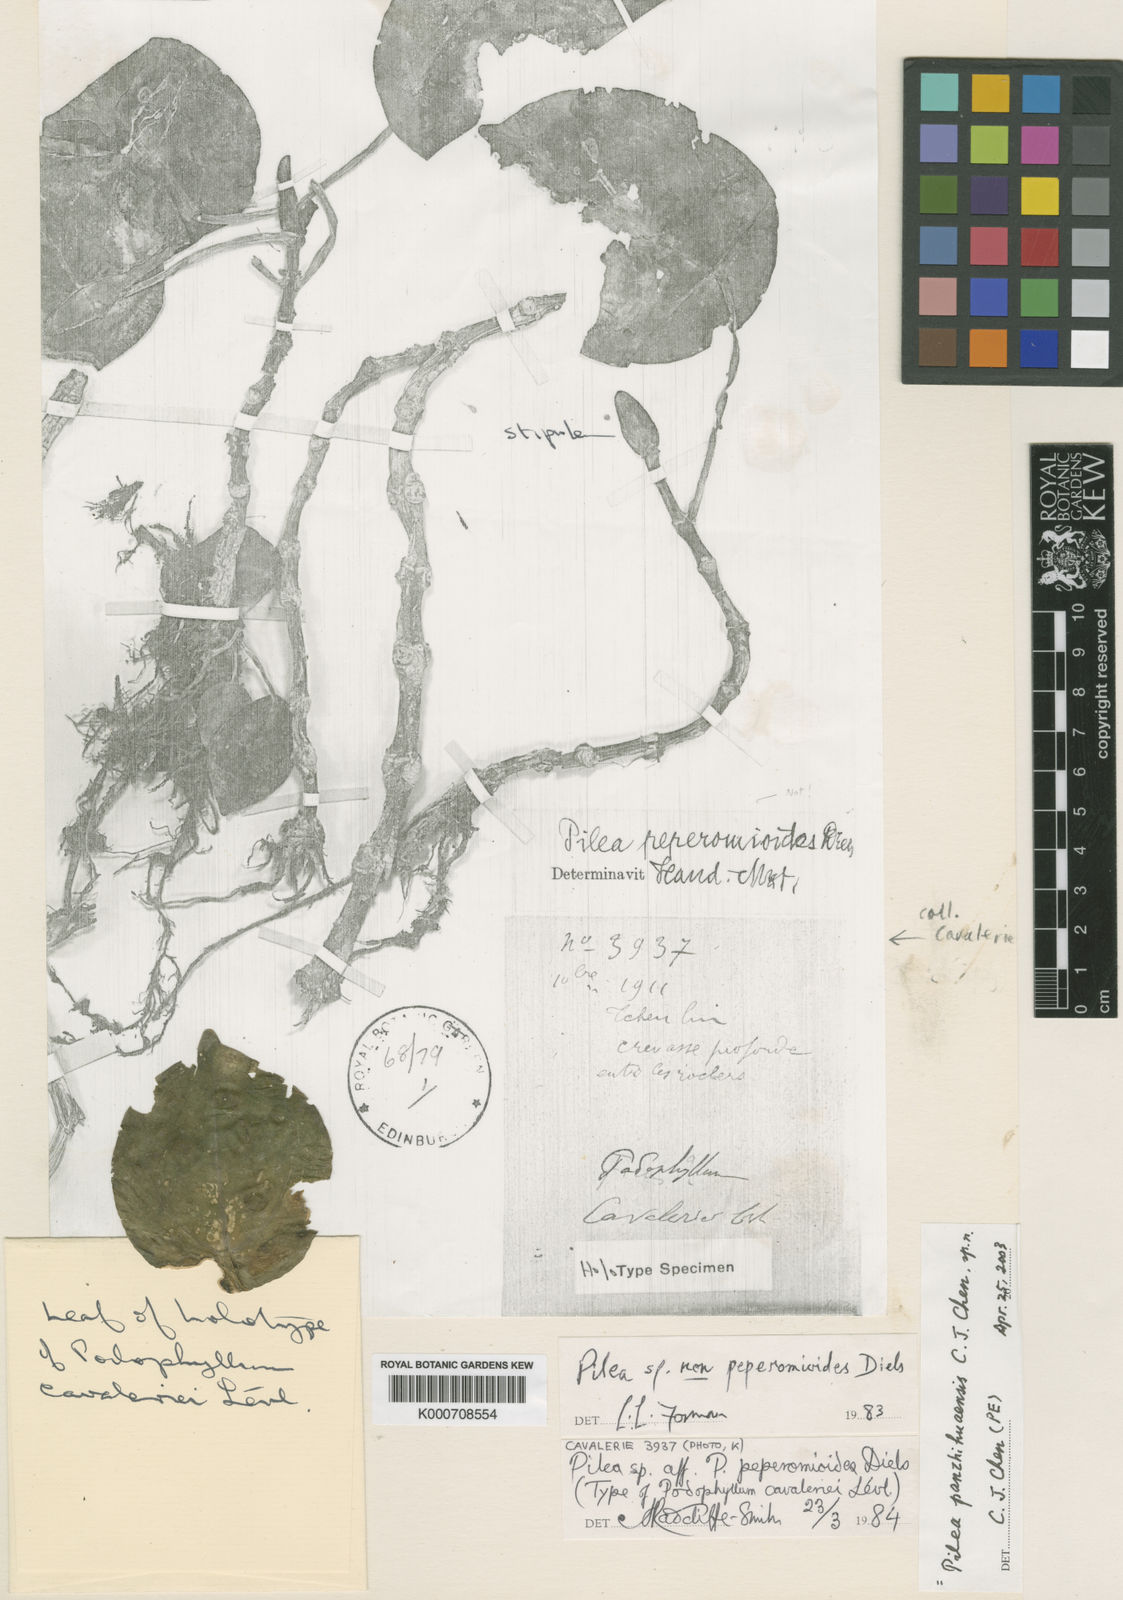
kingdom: Plantae
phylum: Tracheophyta
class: Magnoliopsida
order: Rosales
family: Urticaceae
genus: Pilea
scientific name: Pilea panzhihuaensis
